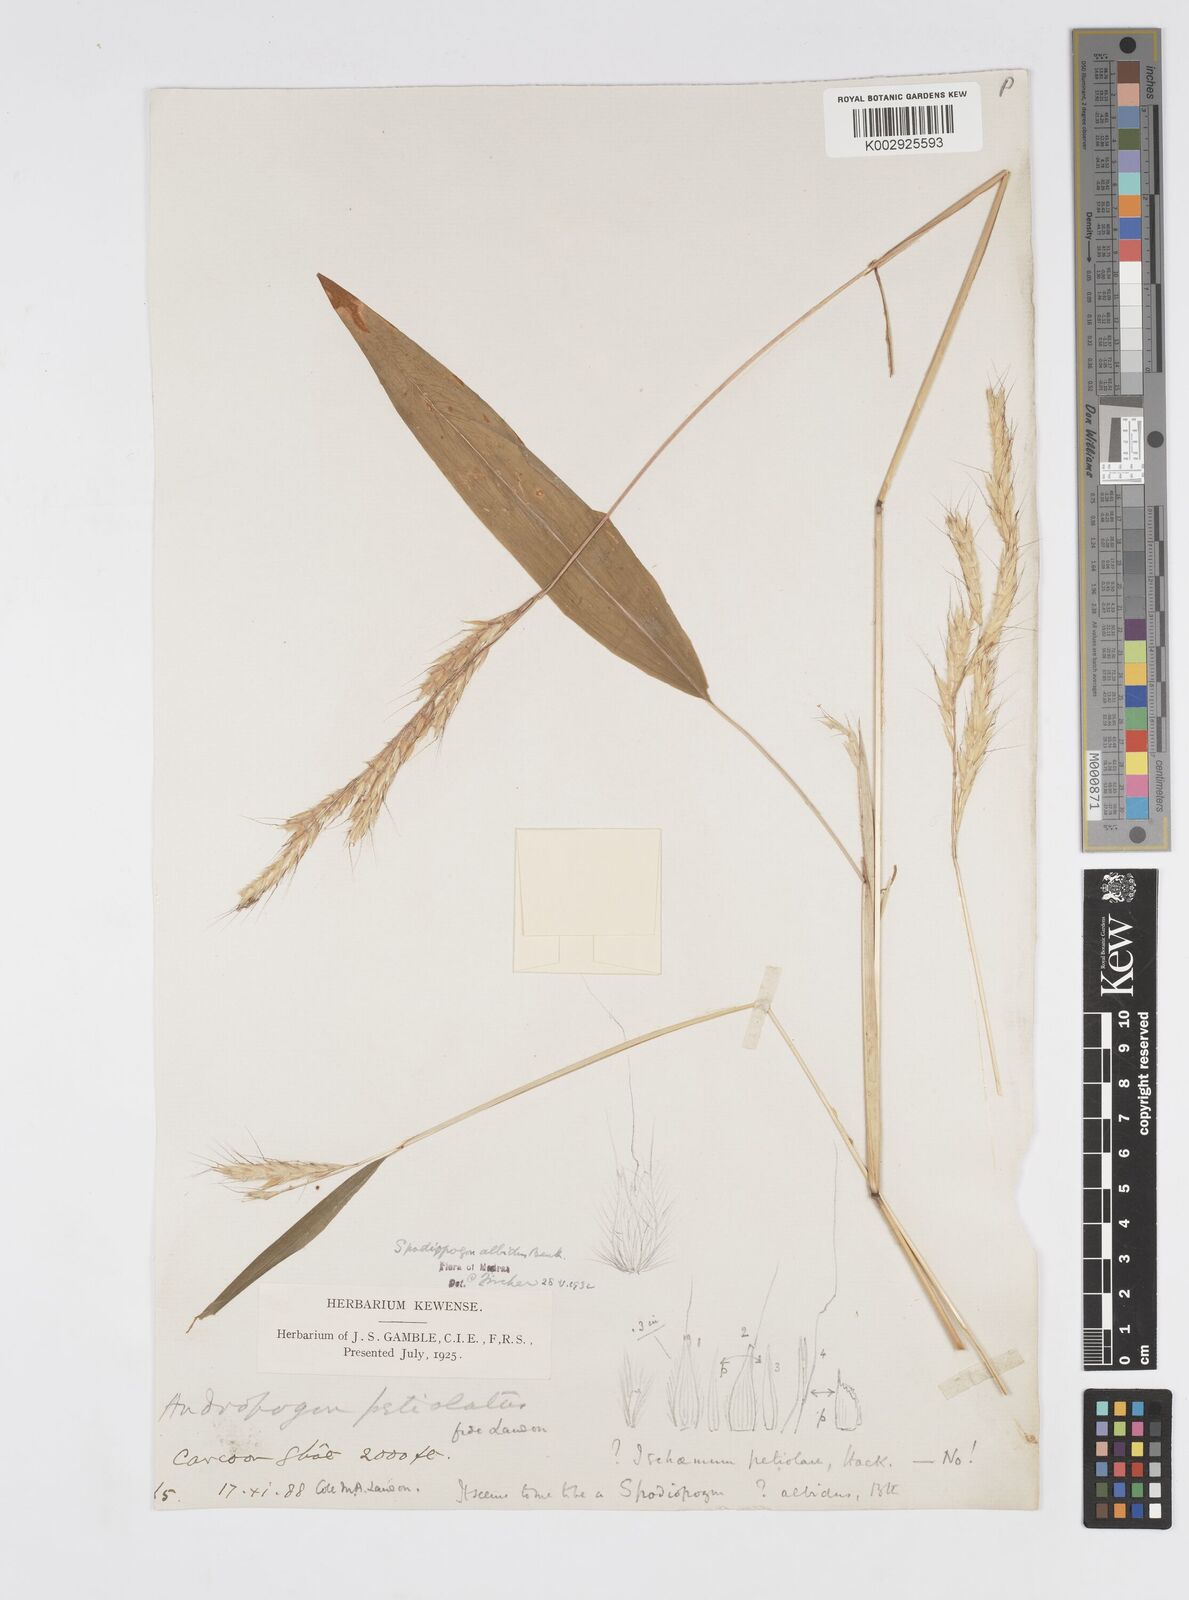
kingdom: Plantae
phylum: Tracheophyta
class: Liliopsida
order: Poales
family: Poaceae
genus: Spodiopogon
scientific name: Spodiopogon rhizophorus
